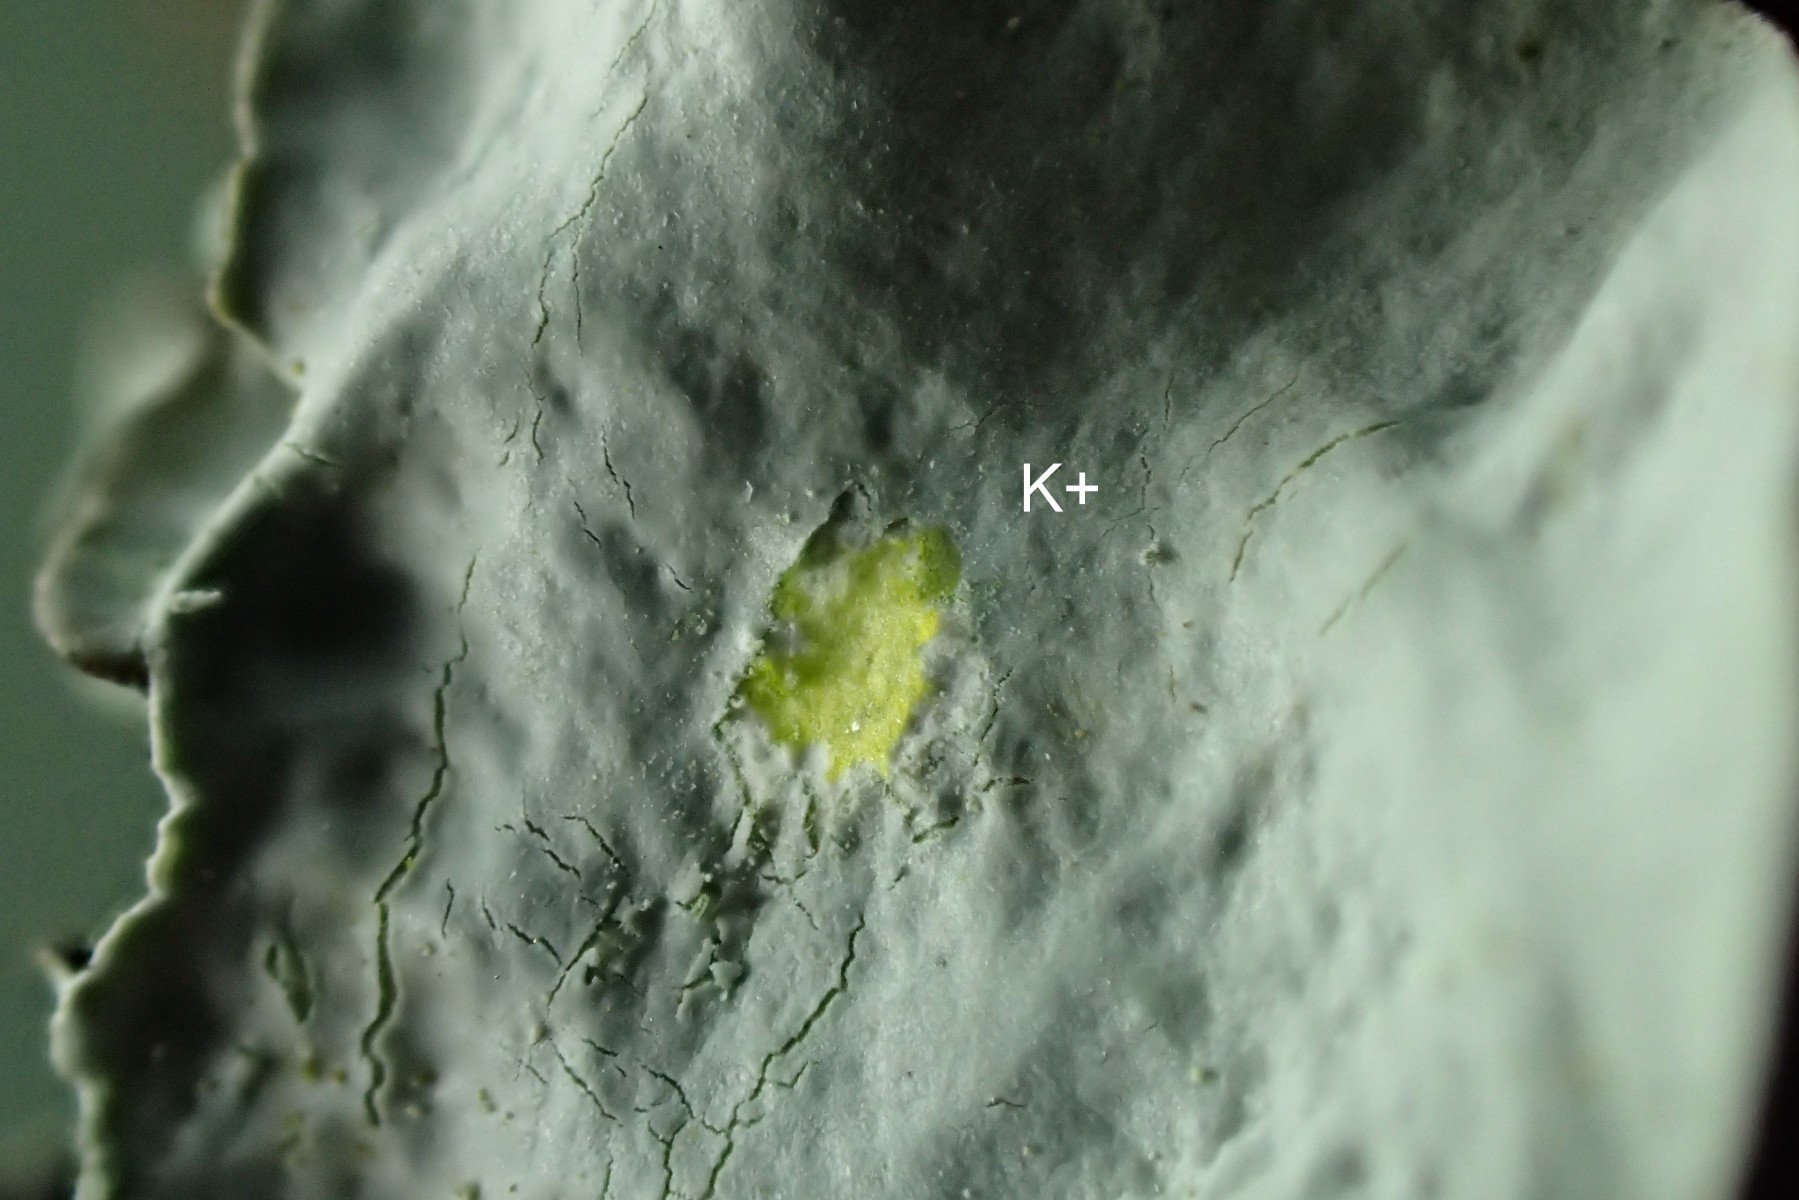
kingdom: Fungi
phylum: Ascomycota
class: Lecanoromycetes
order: Lecanorales
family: Parmeliaceae
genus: Parmotrema
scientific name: Parmotrema perlatum
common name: trådet skållav
